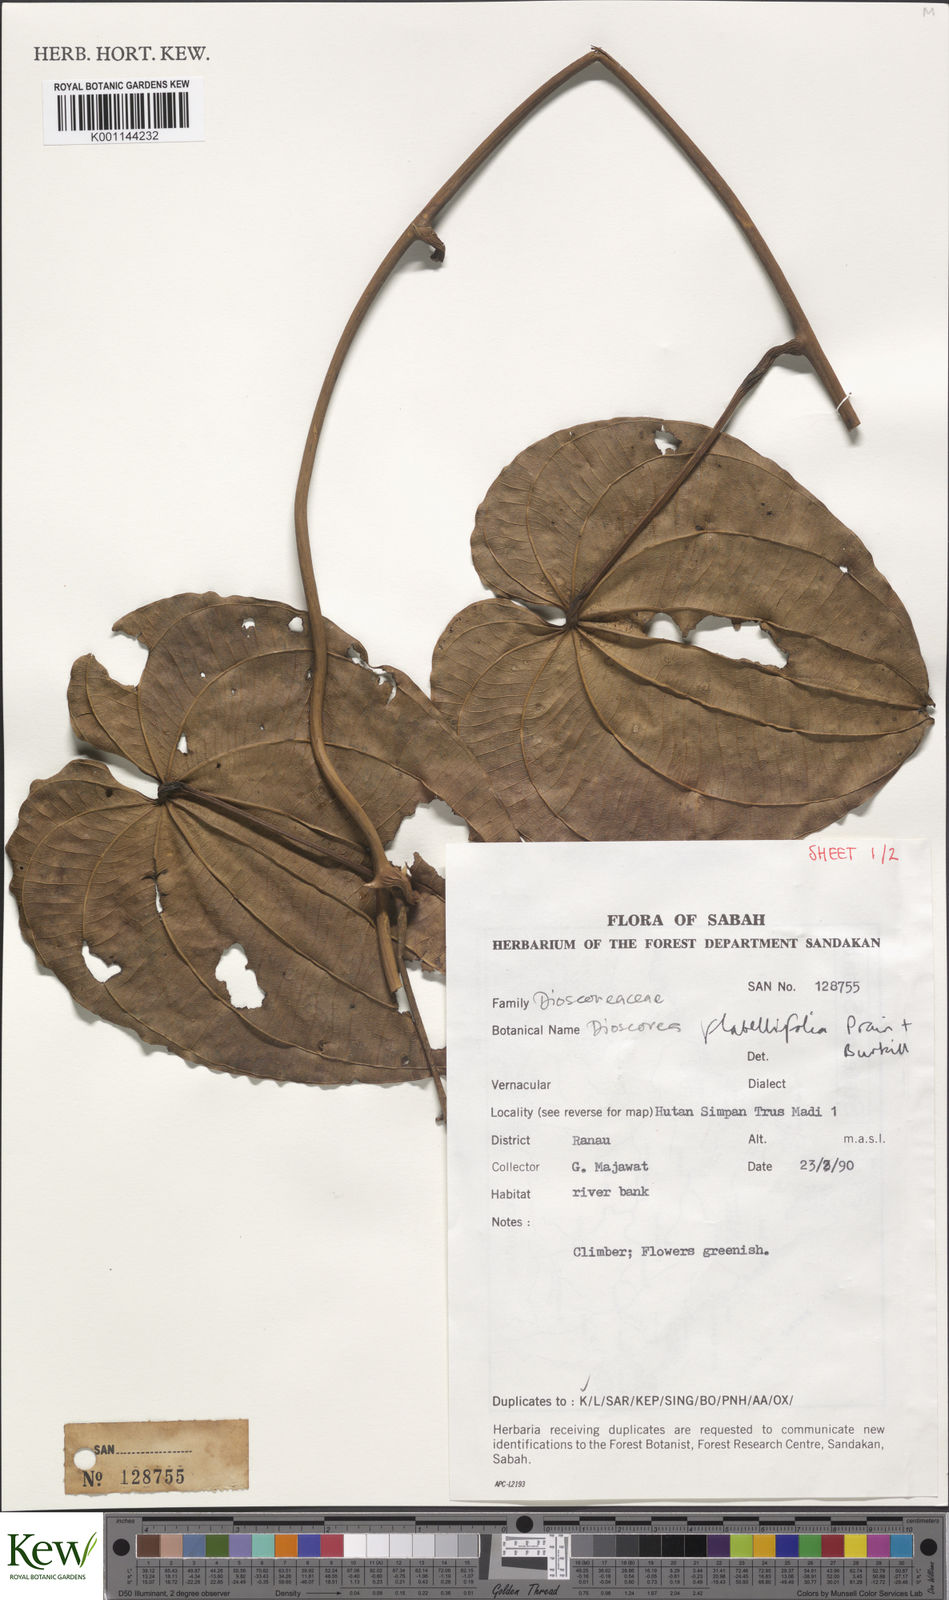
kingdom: Plantae
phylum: Tracheophyta
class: Liliopsida
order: Dioscoreales
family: Dioscoreaceae
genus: Dioscorea
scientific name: Dioscorea flabellifolia
